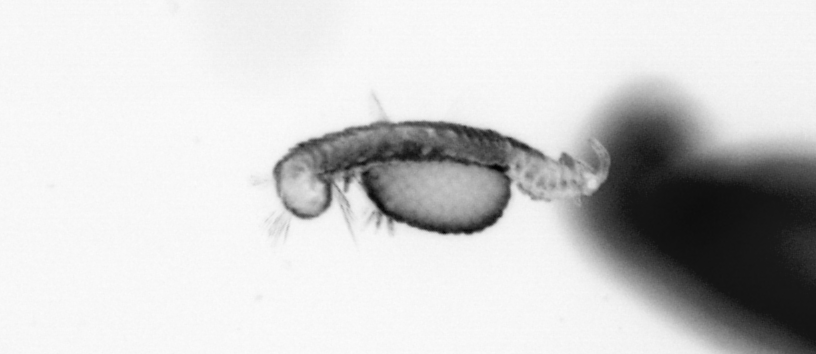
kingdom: Animalia
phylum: Annelida
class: Polychaeta
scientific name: Polychaeta
